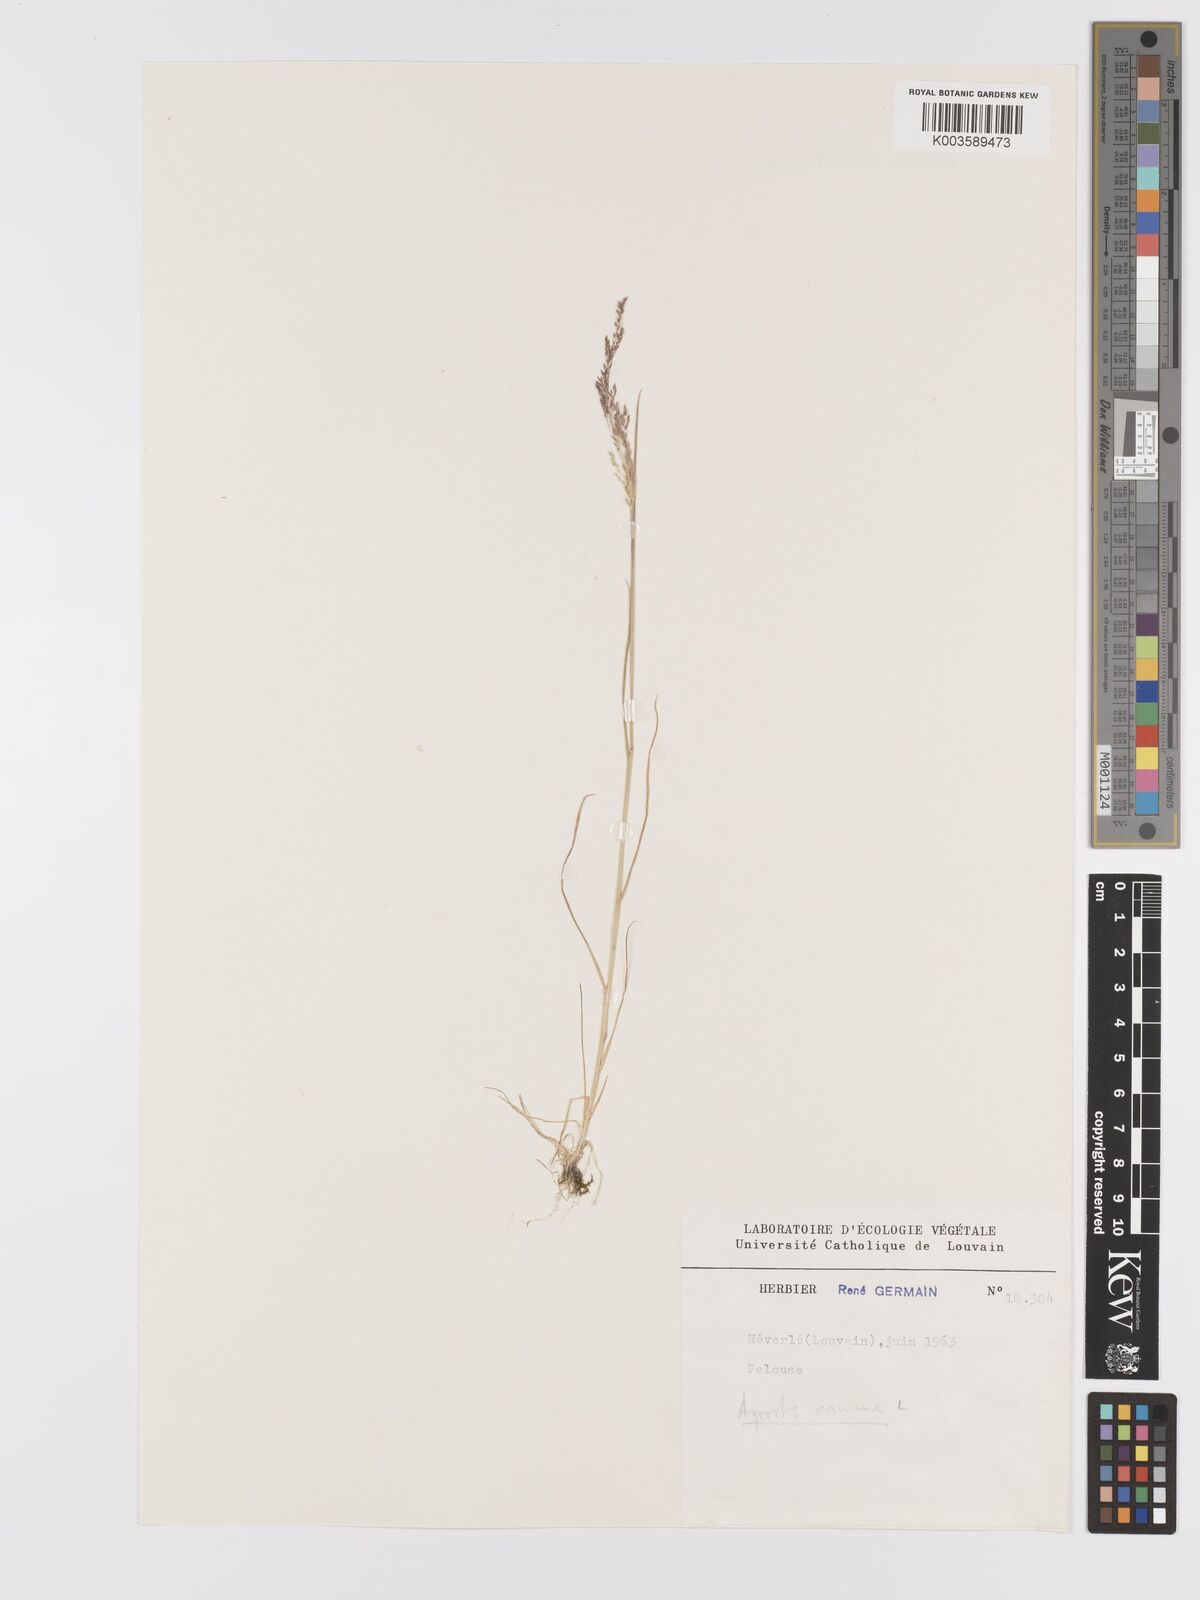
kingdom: Plantae
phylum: Tracheophyta
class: Liliopsida
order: Poales
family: Poaceae
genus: Agrostis
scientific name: Agrostis canina
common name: Velvet bent
